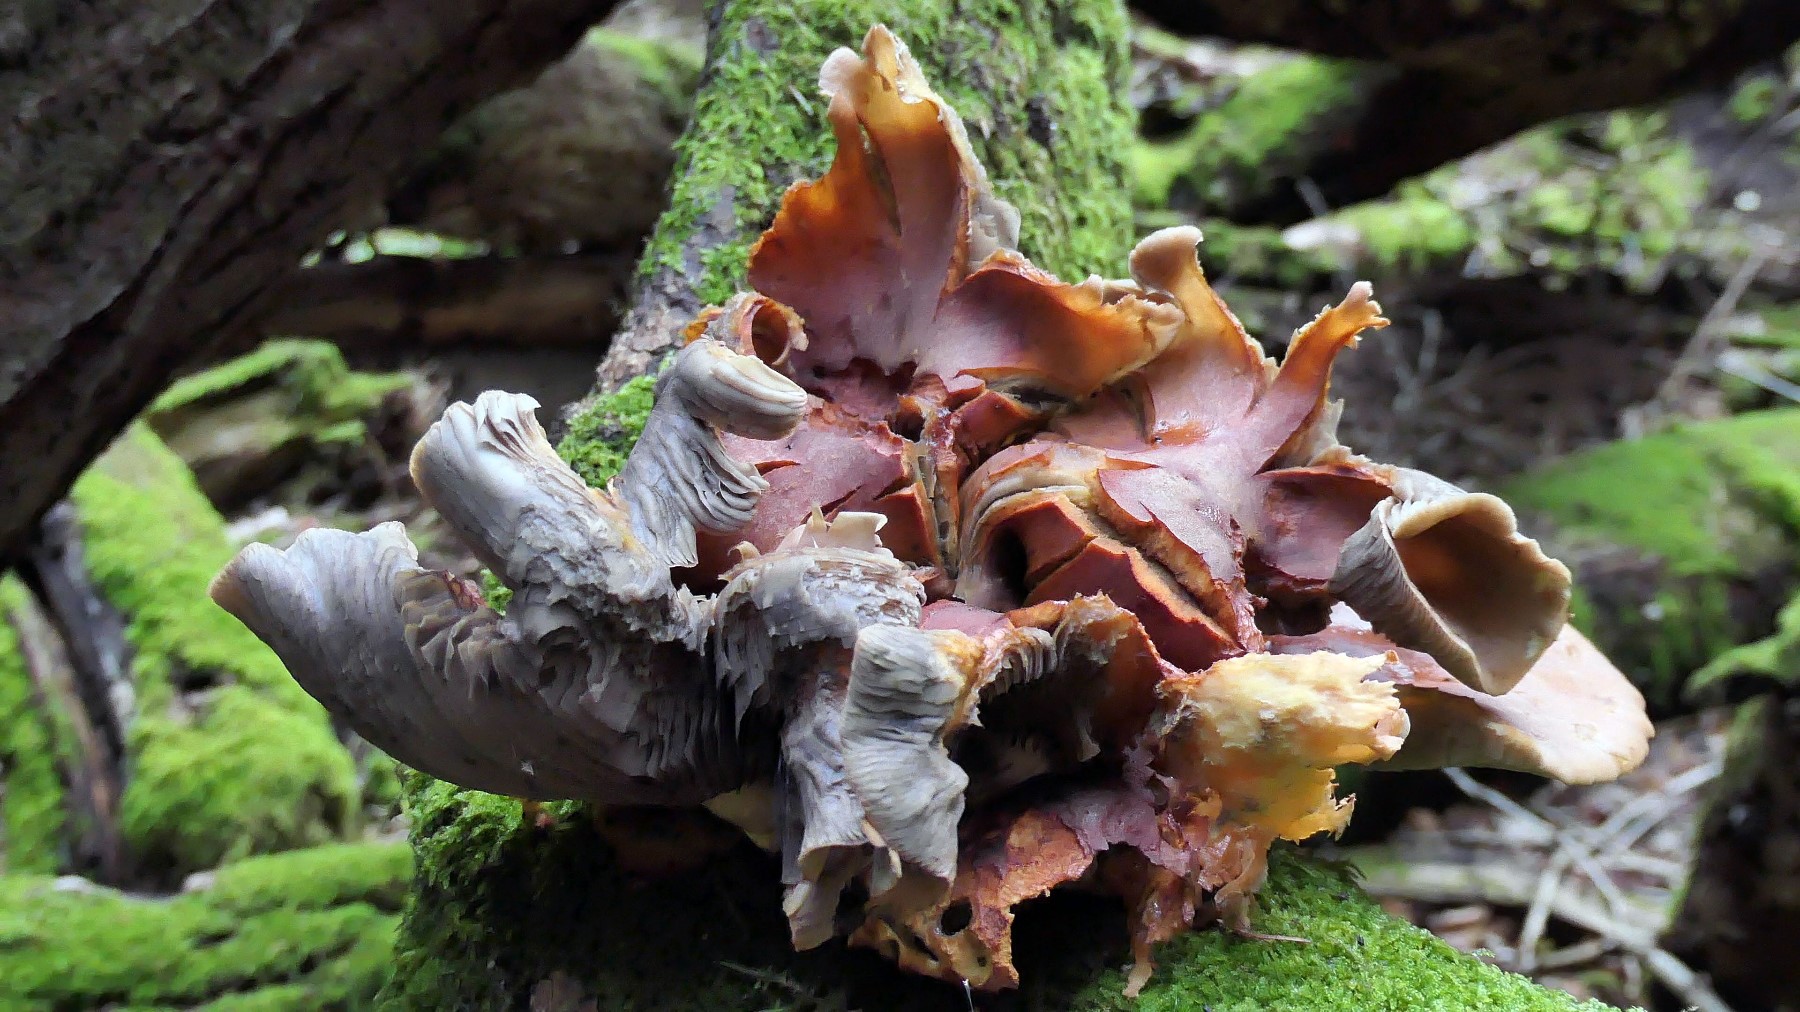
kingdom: Fungi
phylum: Basidiomycota
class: Agaricomycetes
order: Agaricales
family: Strophariaceae
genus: Hypholoma
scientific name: Hypholoma lateritium
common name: teglrød svovlhat
